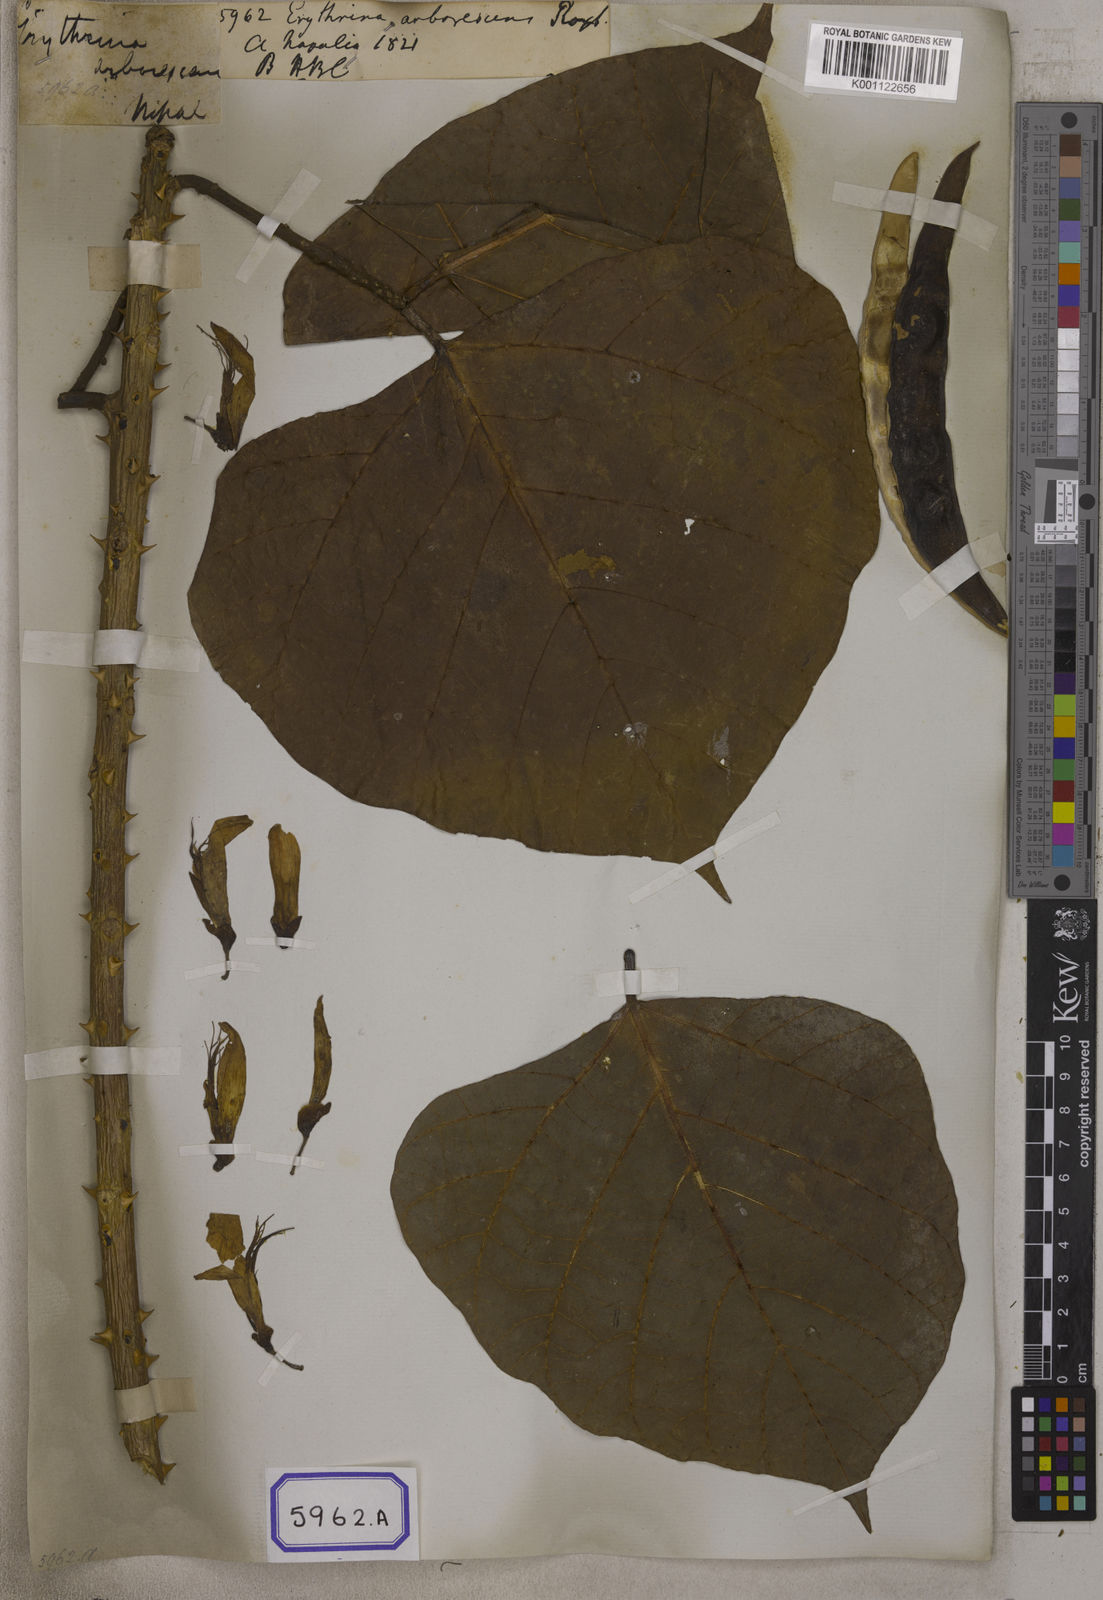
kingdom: Plantae
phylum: Tracheophyta
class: Magnoliopsida
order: Fabales
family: Fabaceae
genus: Erythrina
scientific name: Erythrina arborescens
